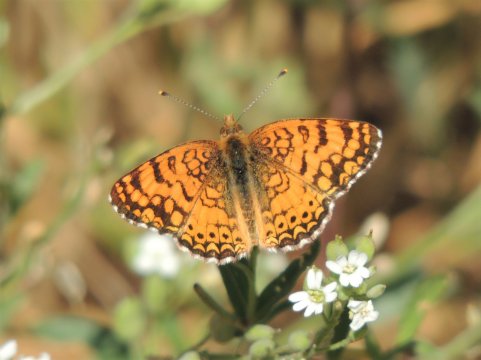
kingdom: Animalia
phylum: Arthropoda
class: Insecta
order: Lepidoptera
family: Nymphalidae
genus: Eresia
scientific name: Eresia aveyrona
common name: Mylitta Crescent
